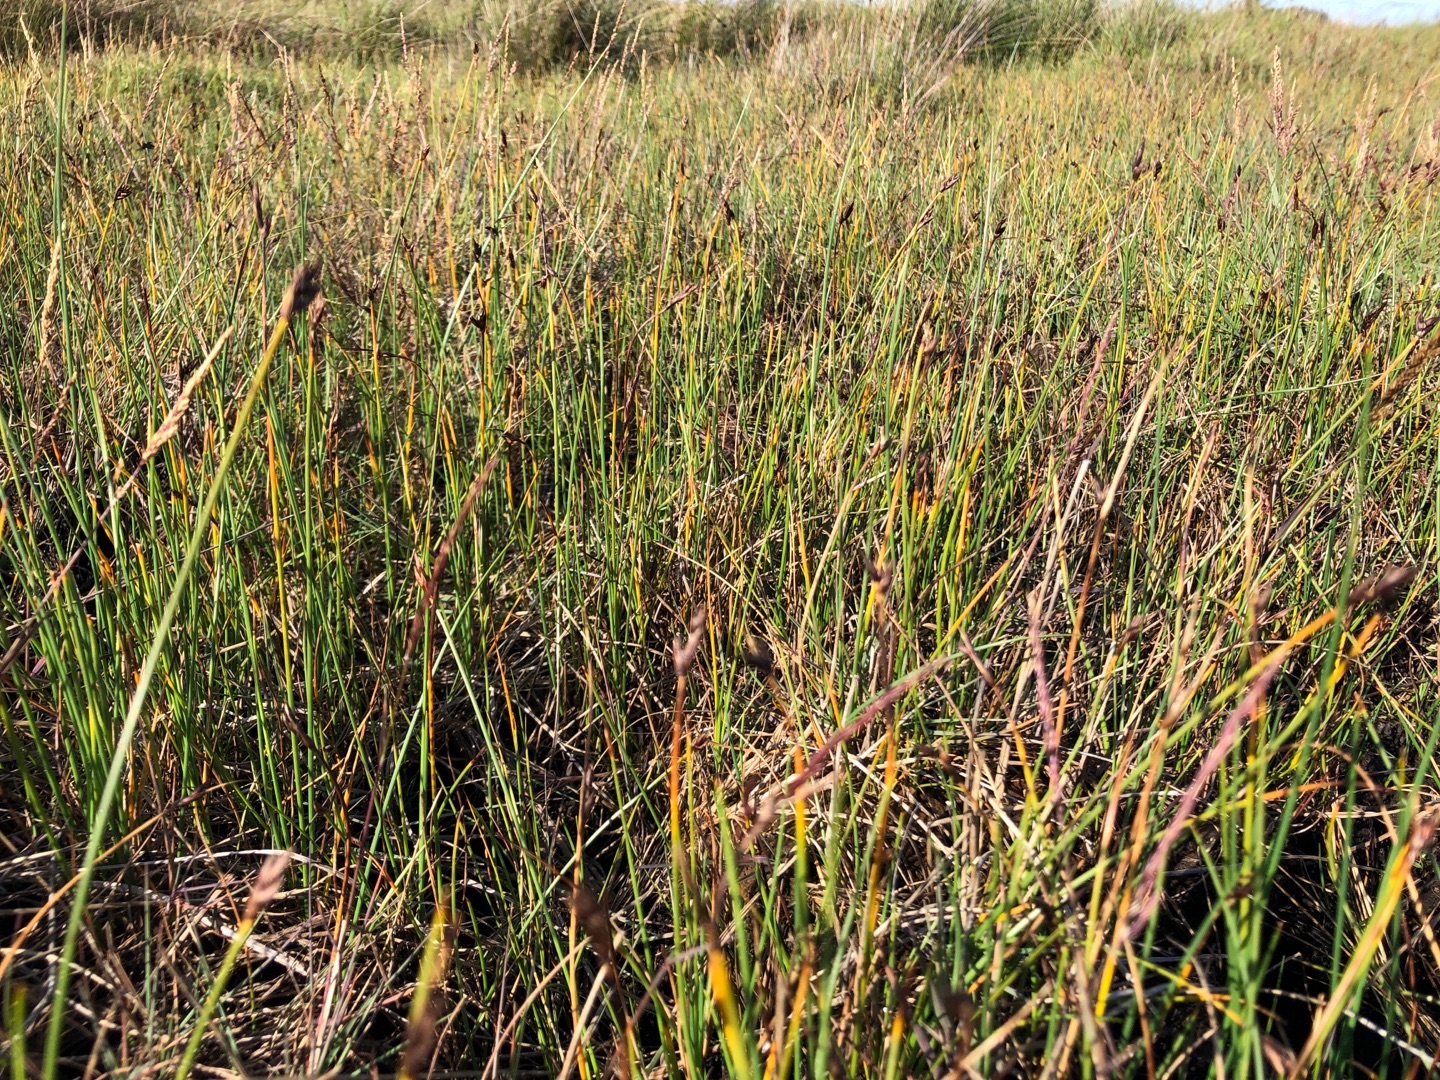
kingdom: Plantae
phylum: Tracheophyta
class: Liliopsida
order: Poales
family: Cyperaceae
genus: Blysmus
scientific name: Blysmus rufus
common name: Rødbrun kogleaks
